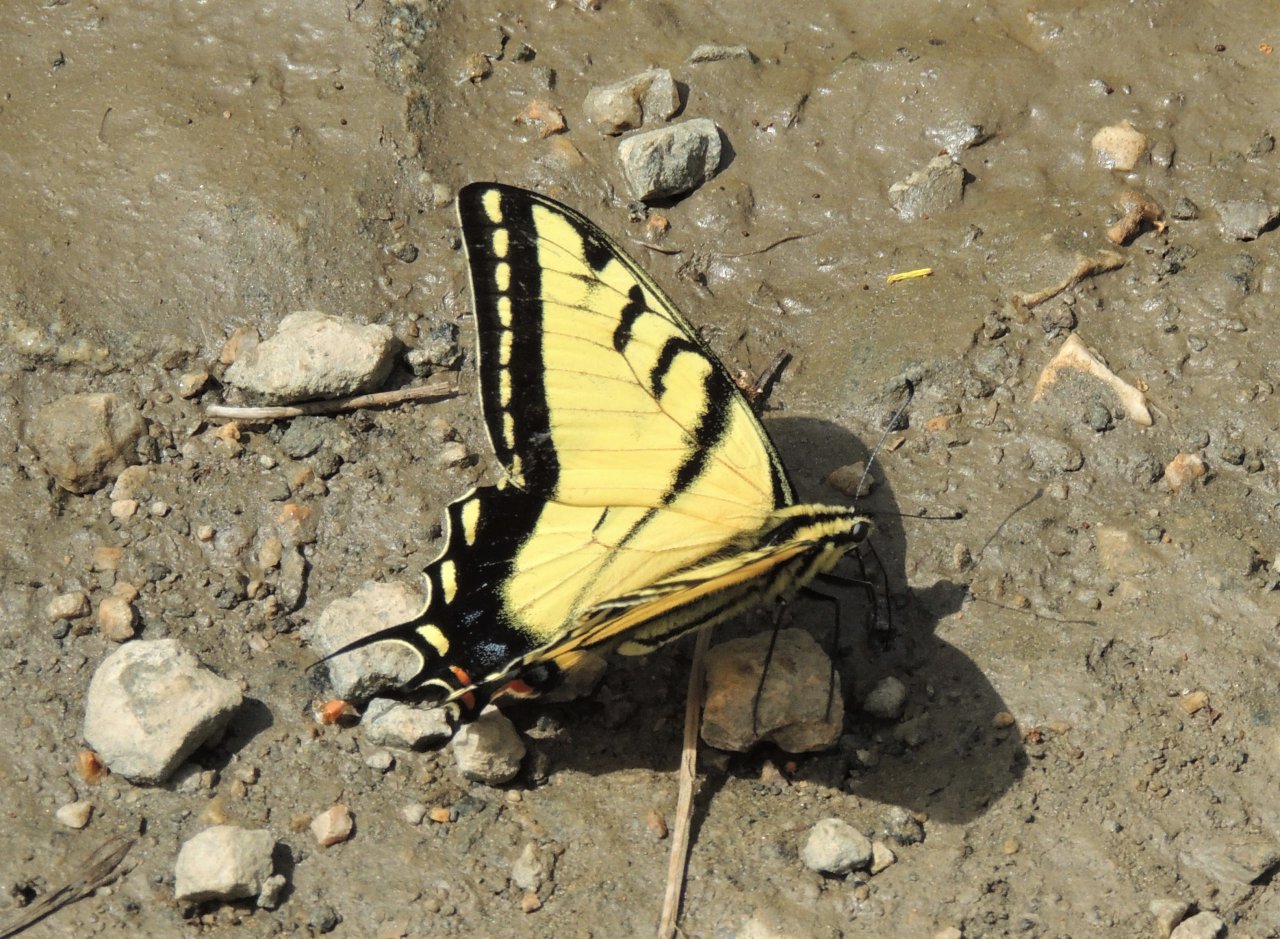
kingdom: Animalia
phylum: Arthropoda
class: Insecta
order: Lepidoptera
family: Papilionidae
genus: Papilio
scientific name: Papilio multicaudata
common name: Two-tailed Swallowtail
